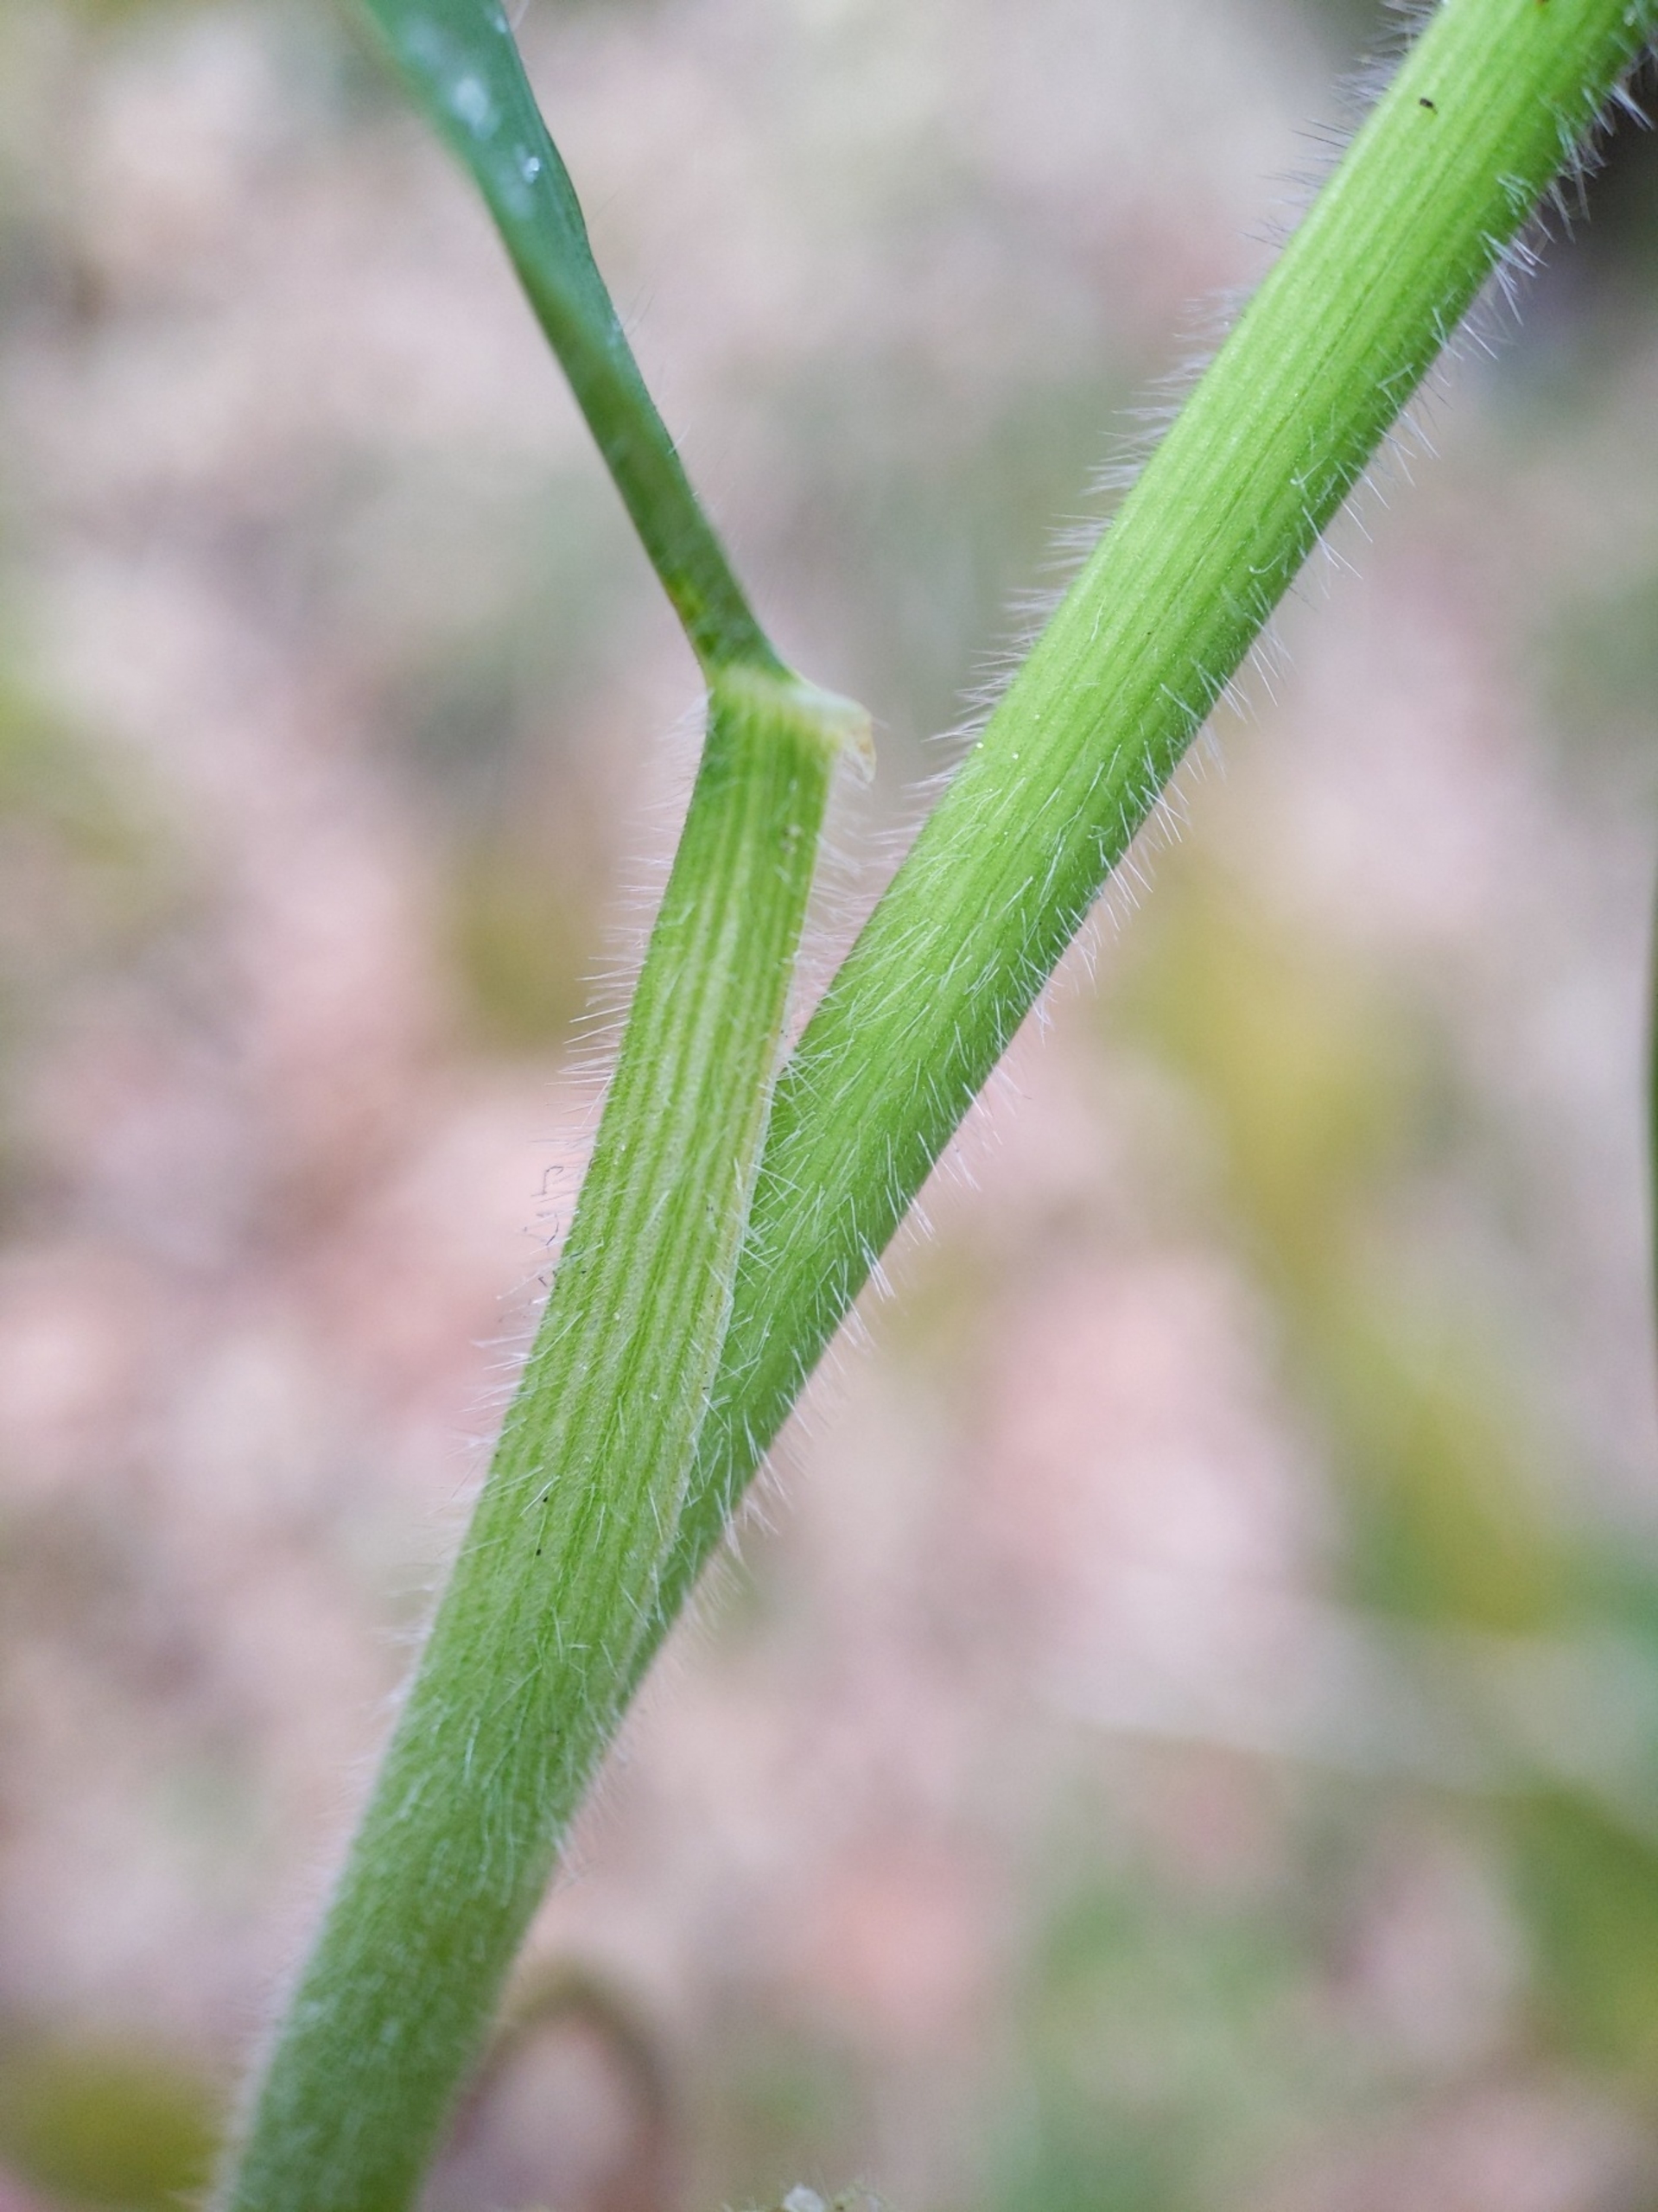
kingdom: Plantae
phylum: Tracheophyta
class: Liliopsida
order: Poales
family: Poaceae
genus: Bromus
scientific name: Bromus ramosus
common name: Sildig skov-hejre
